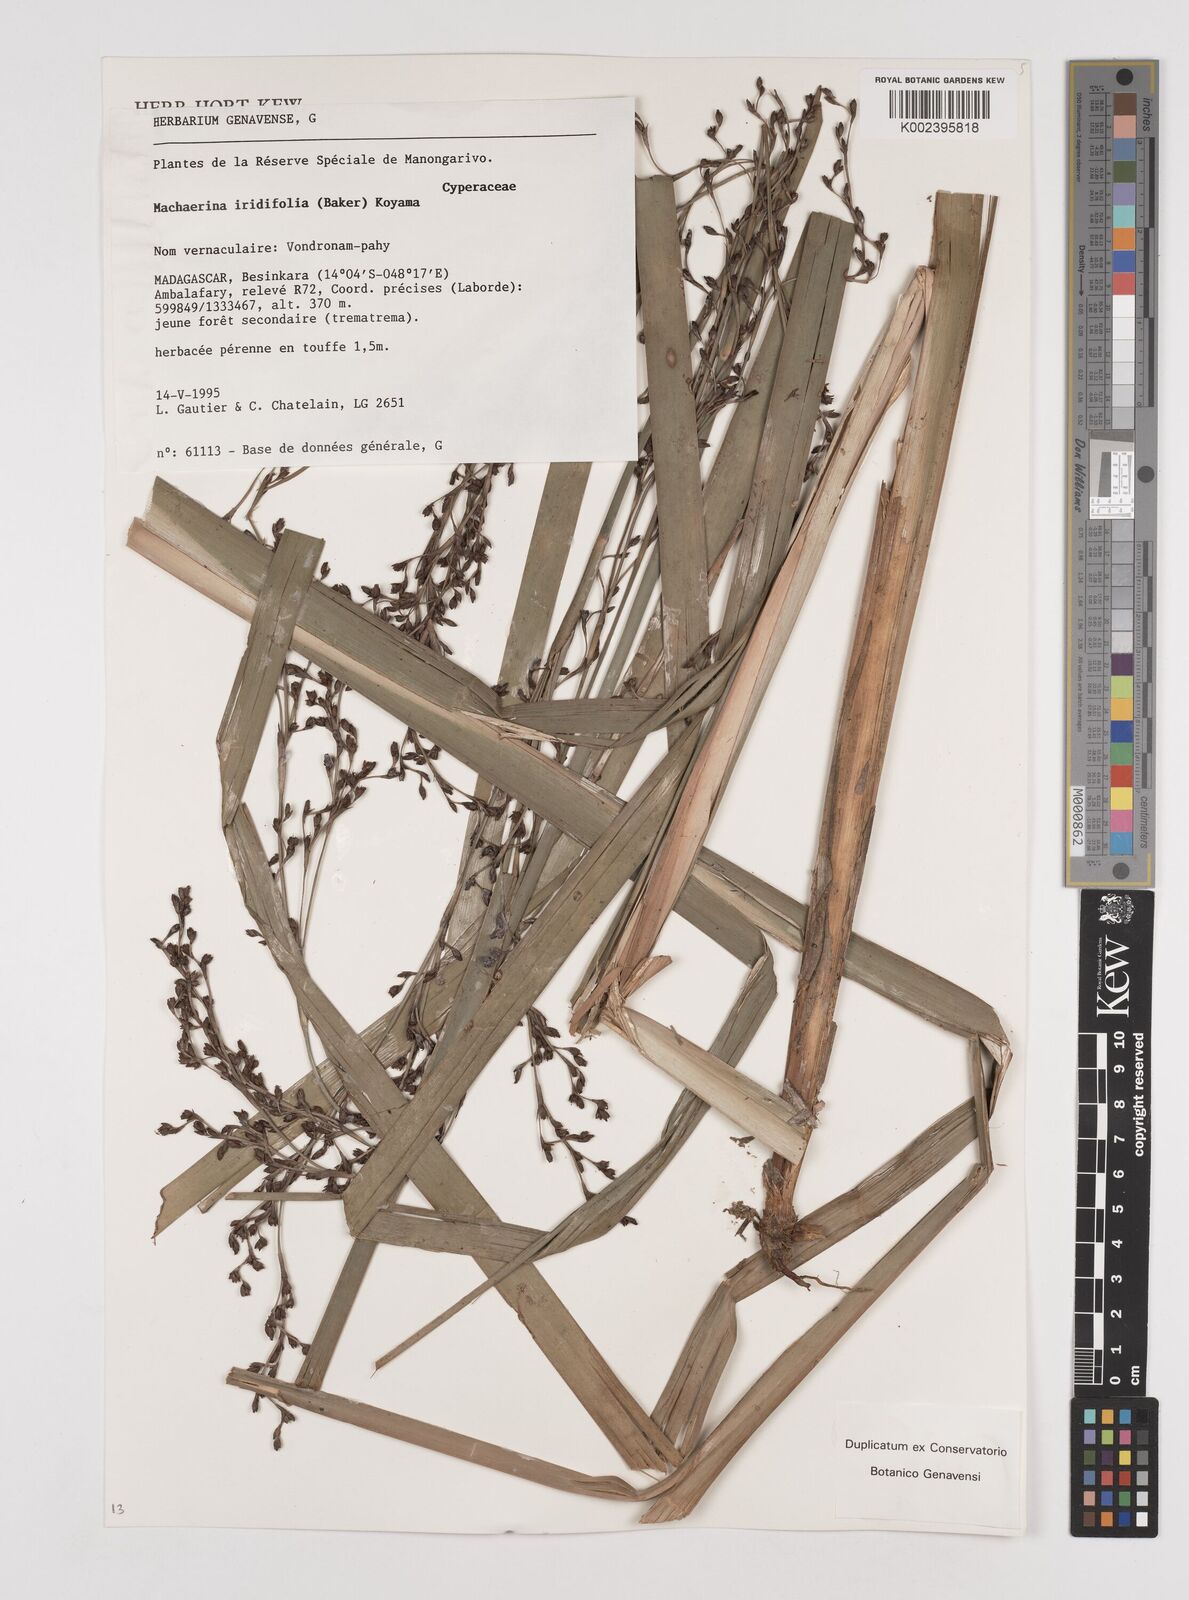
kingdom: Plantae
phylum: Tracheophyta
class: Liliopsida
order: Poales
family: Cyperaceae
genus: Machaerina
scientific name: Machaerina iridifolia
